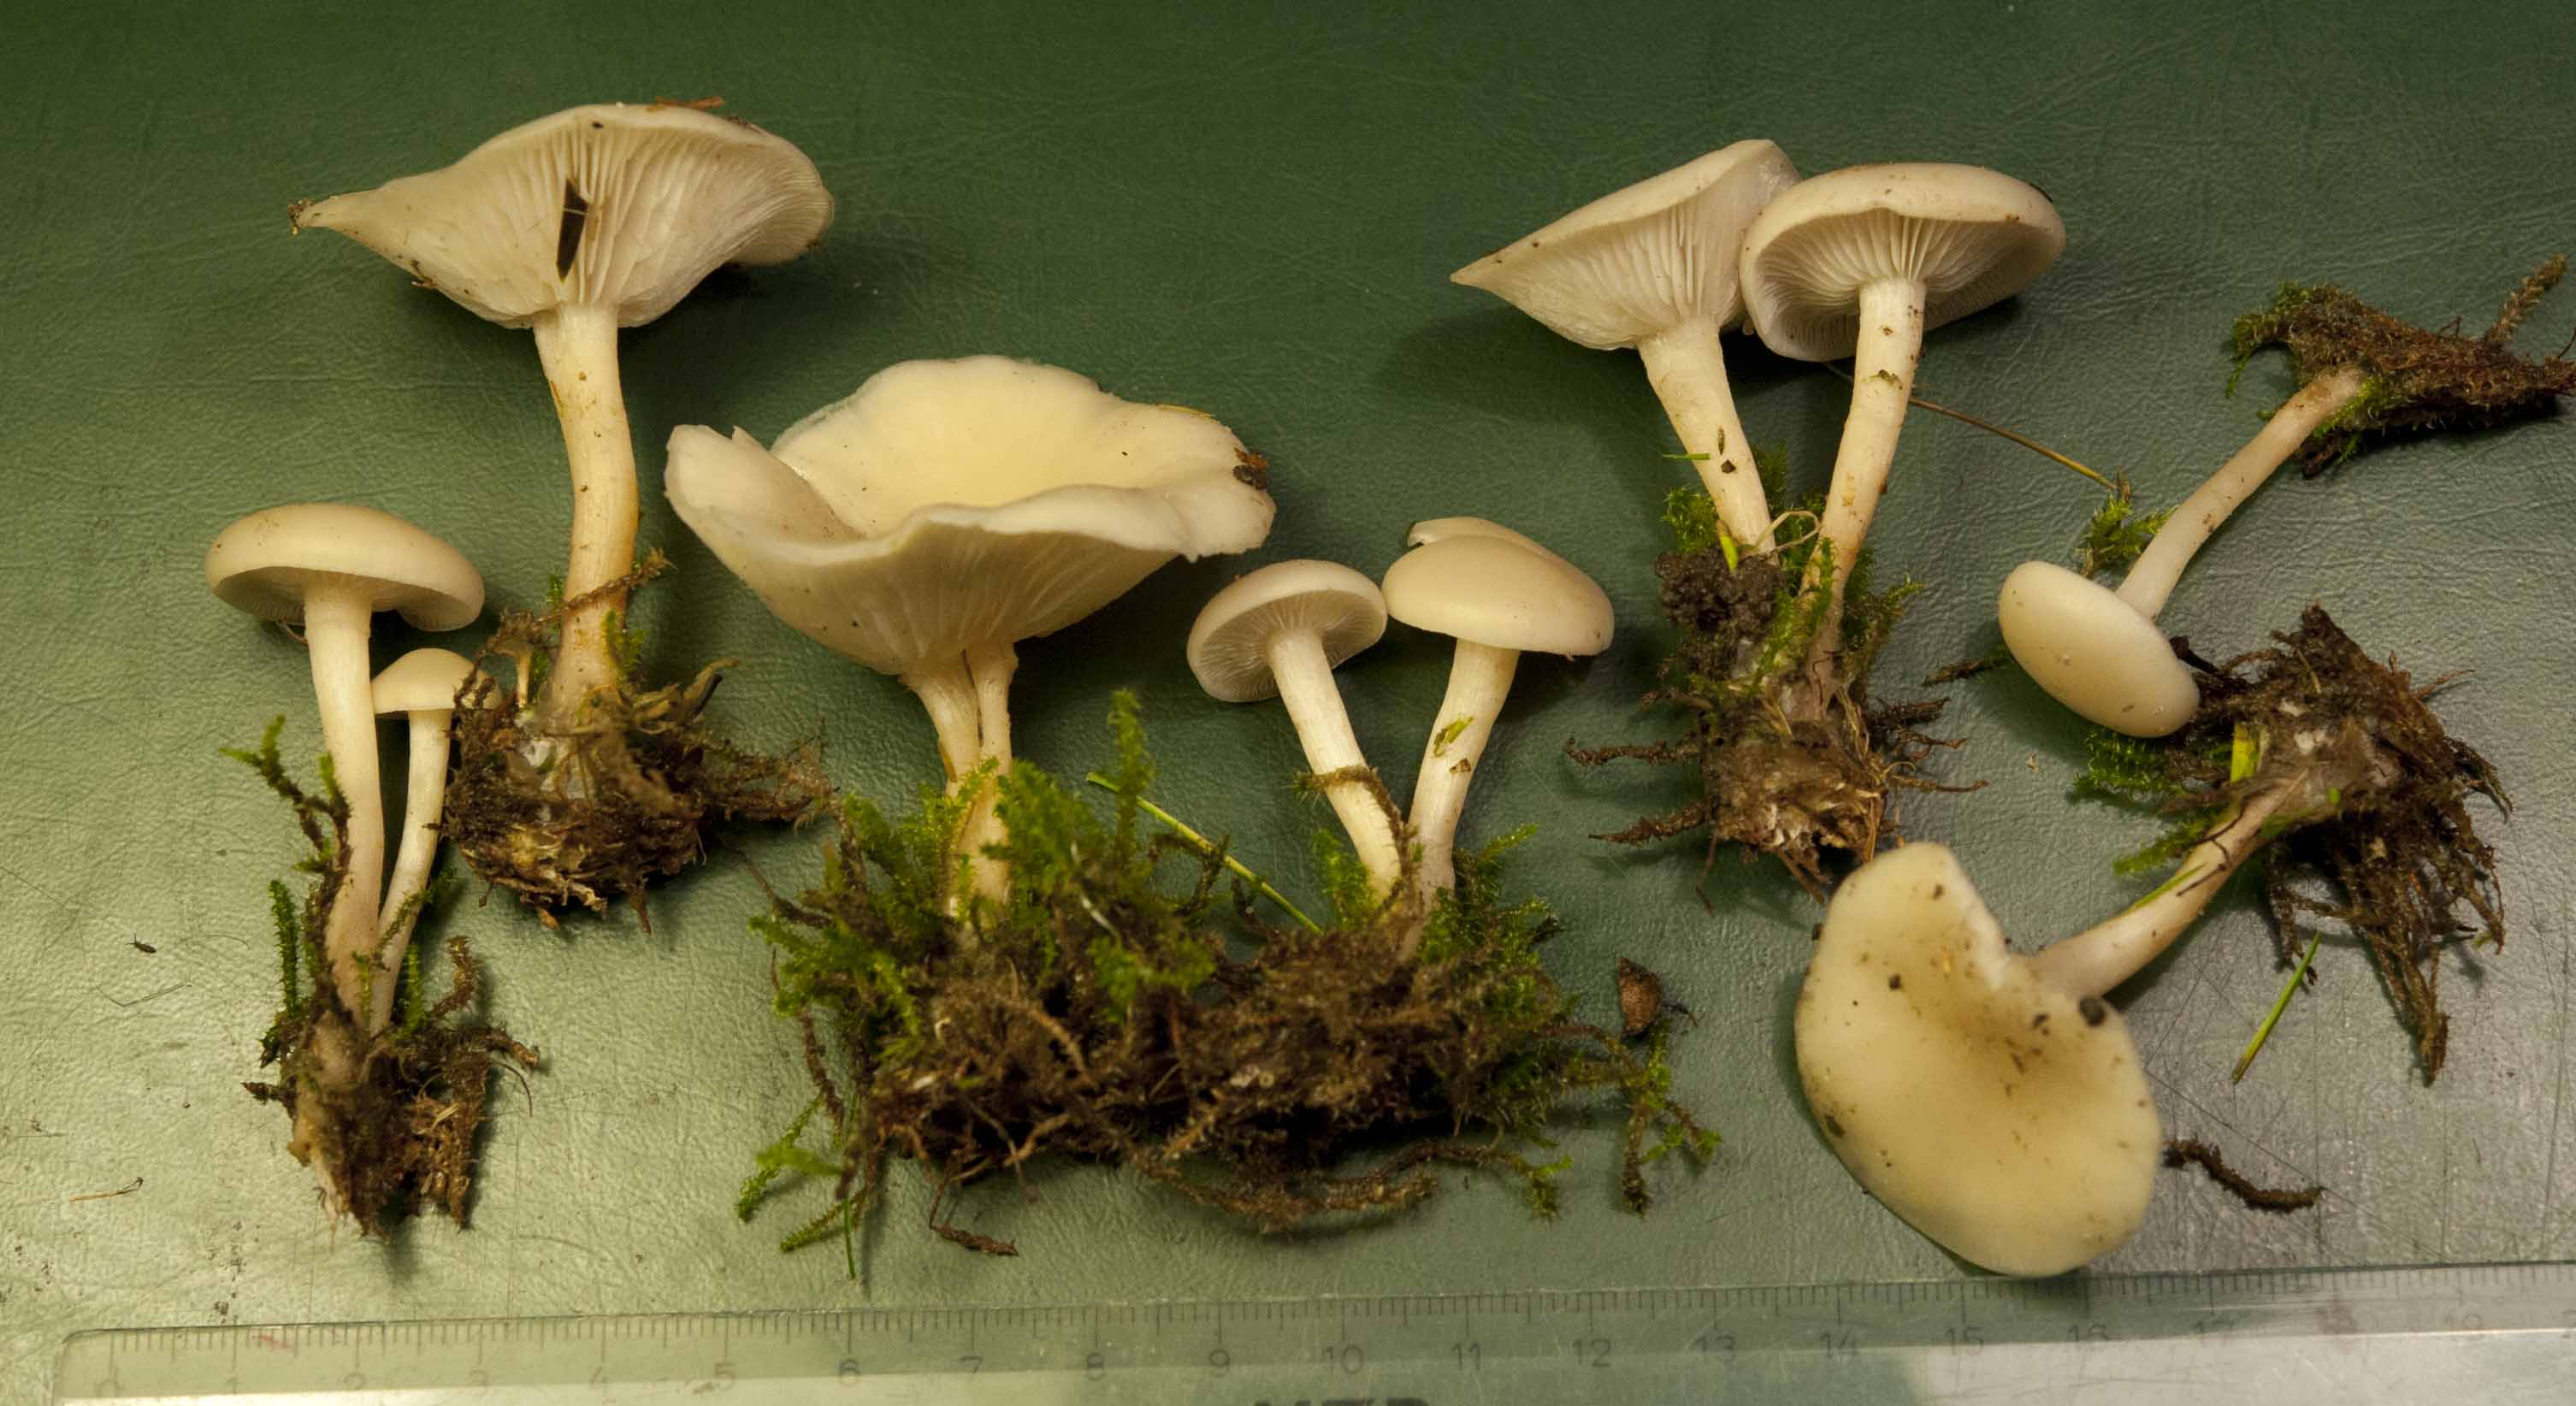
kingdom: Fungi
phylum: Basidiomycota
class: Agaricomycetes
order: Agaricales
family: Tricholomataceae
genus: Clitocybe
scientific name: Clitocybe agrestis
